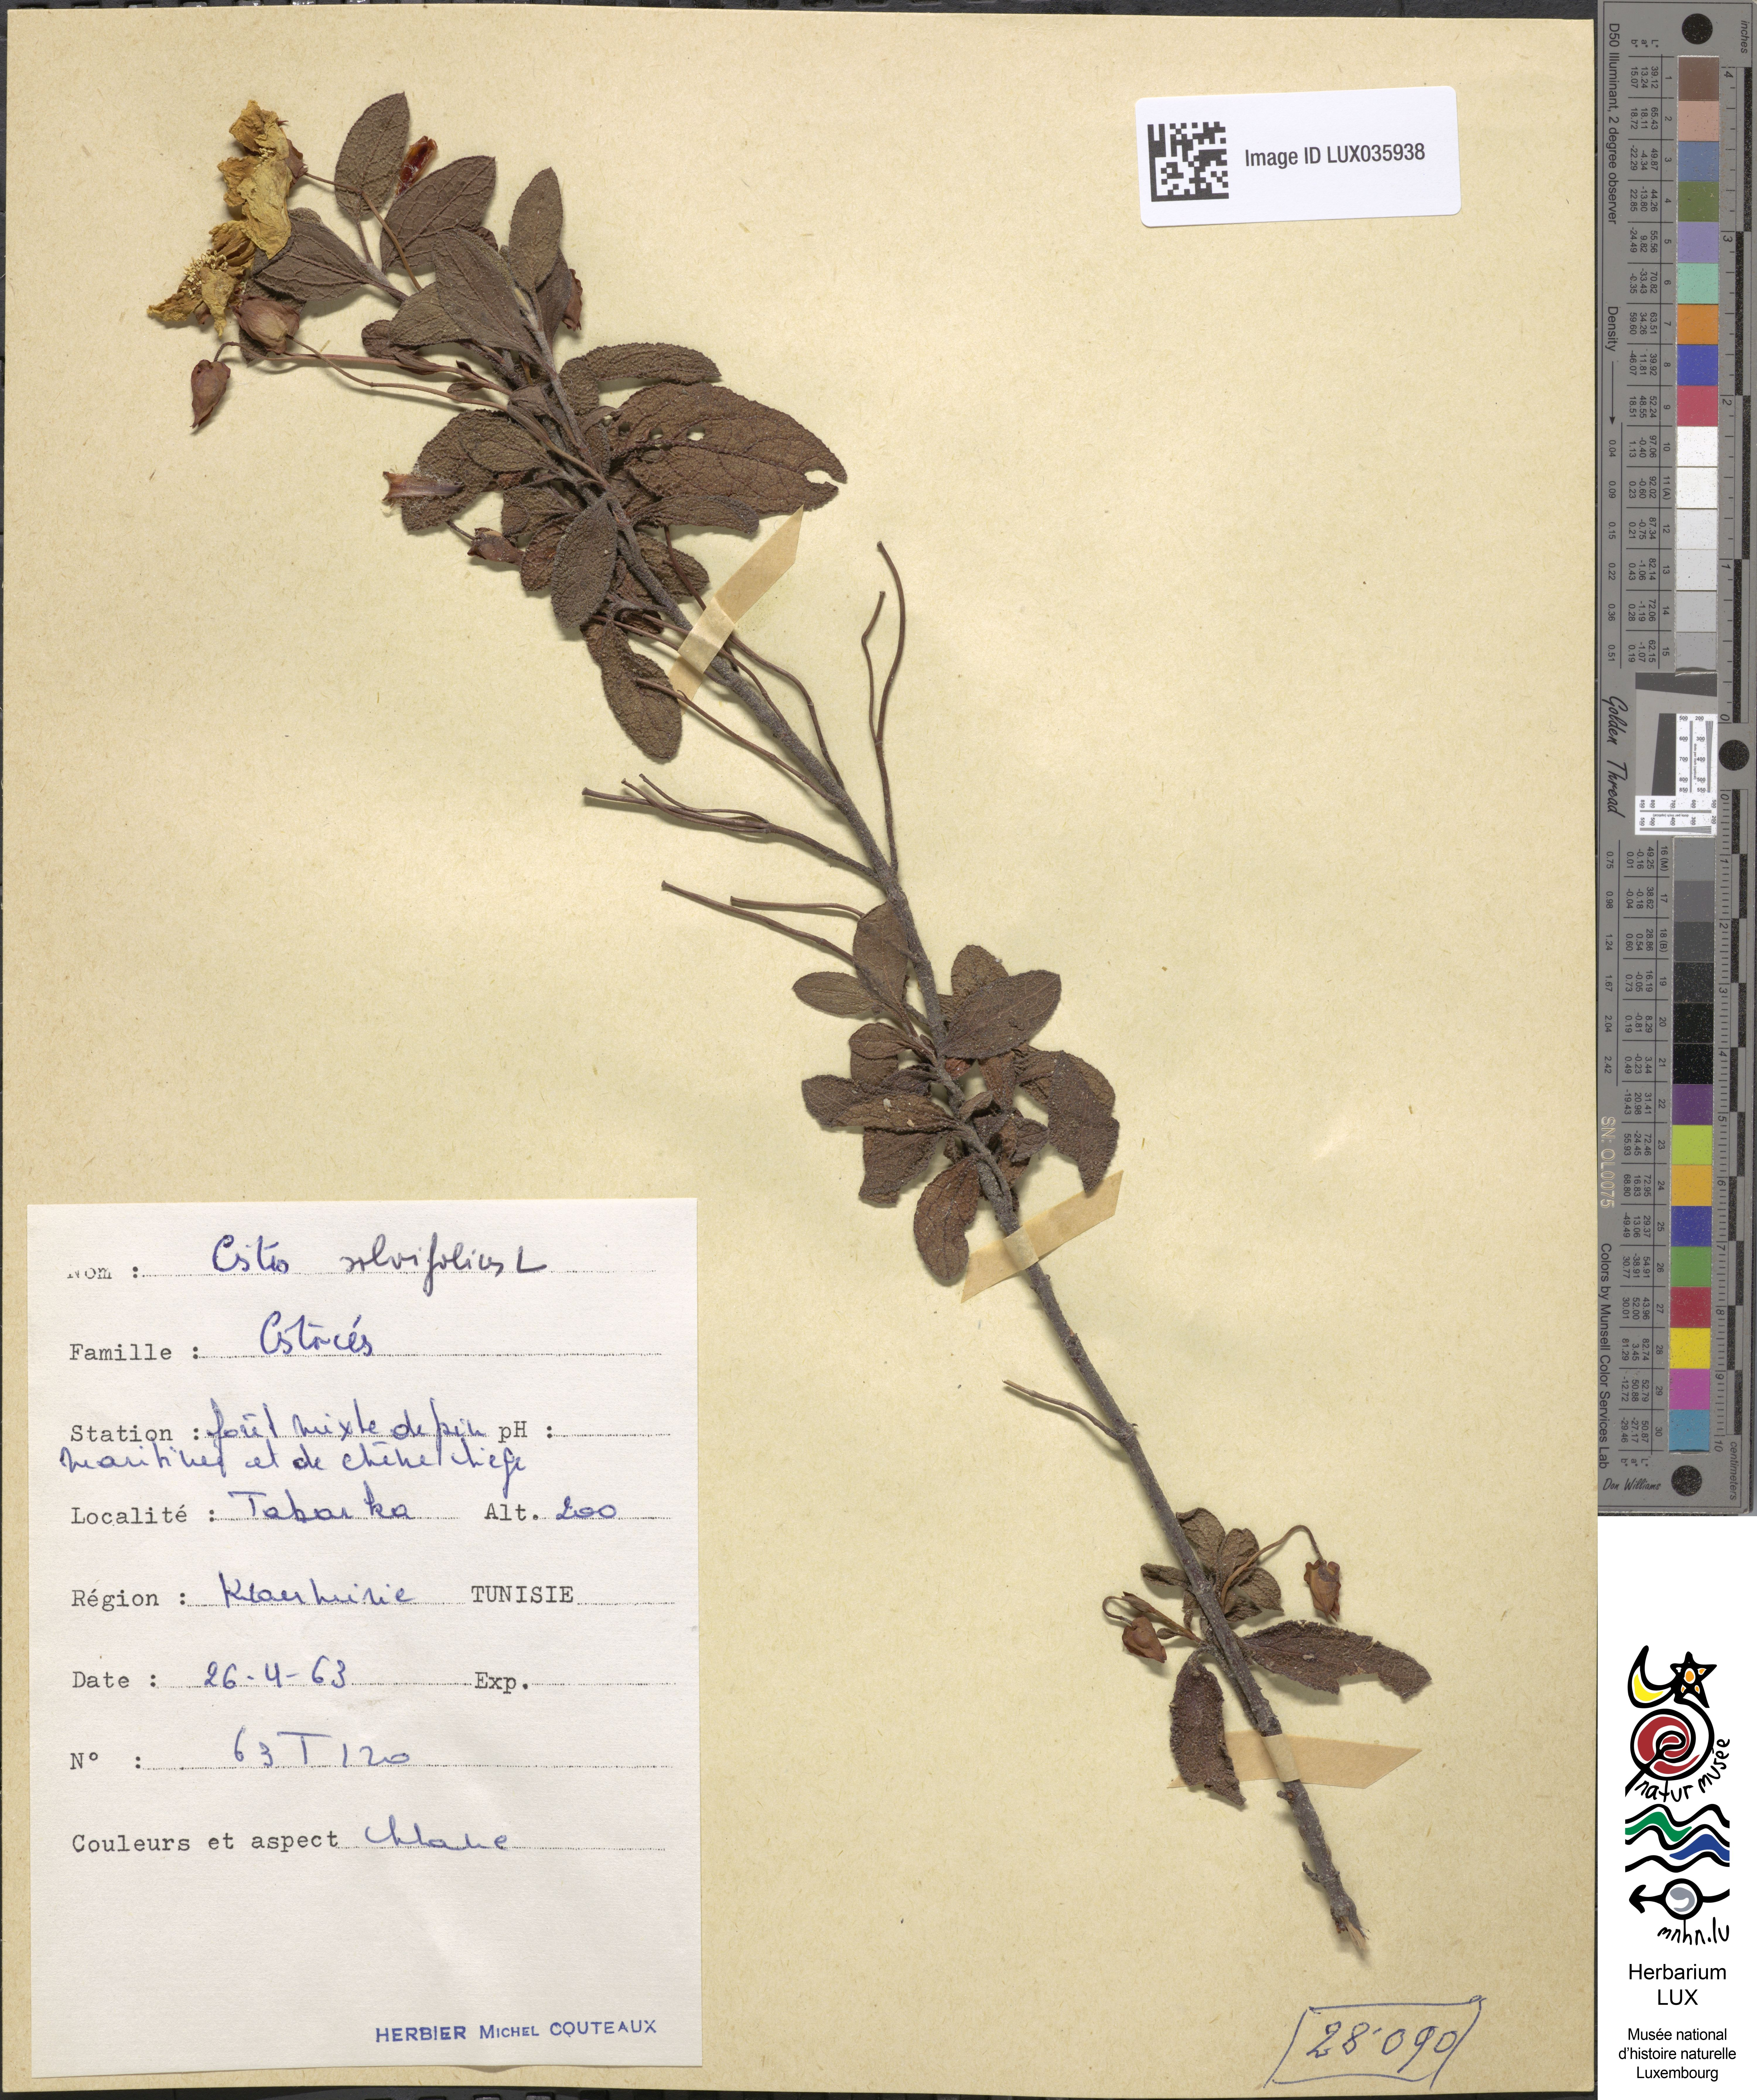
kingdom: Plantae
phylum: Tracheophyta
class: Magnoliopsida
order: Malvales
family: Cistaceae
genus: Cistus
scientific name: Cistus salviifolius
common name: Salvia cistus
